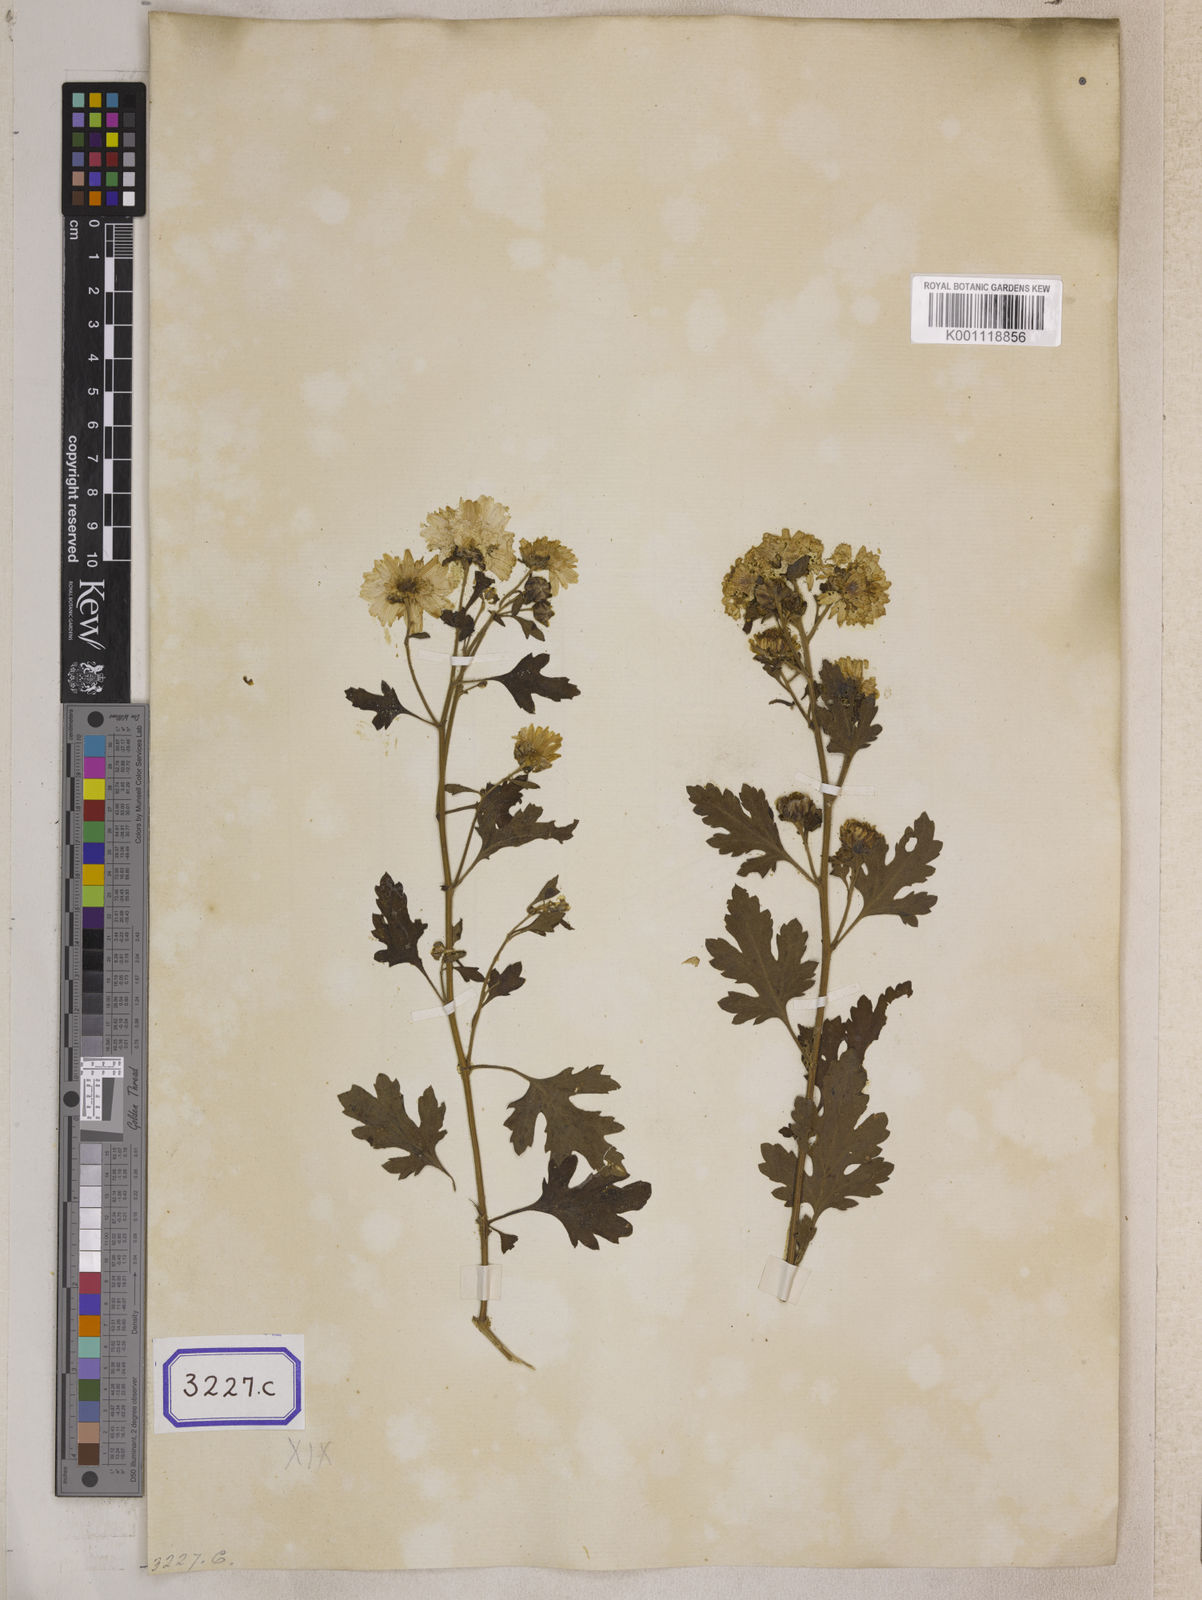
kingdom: Plantae
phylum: Tracheophyta
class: Magnoliopsida
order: Asterales
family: Asteraceae
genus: Chrysanthemum
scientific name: Chrysanthemum indicum
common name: Indian chrysanthemum
